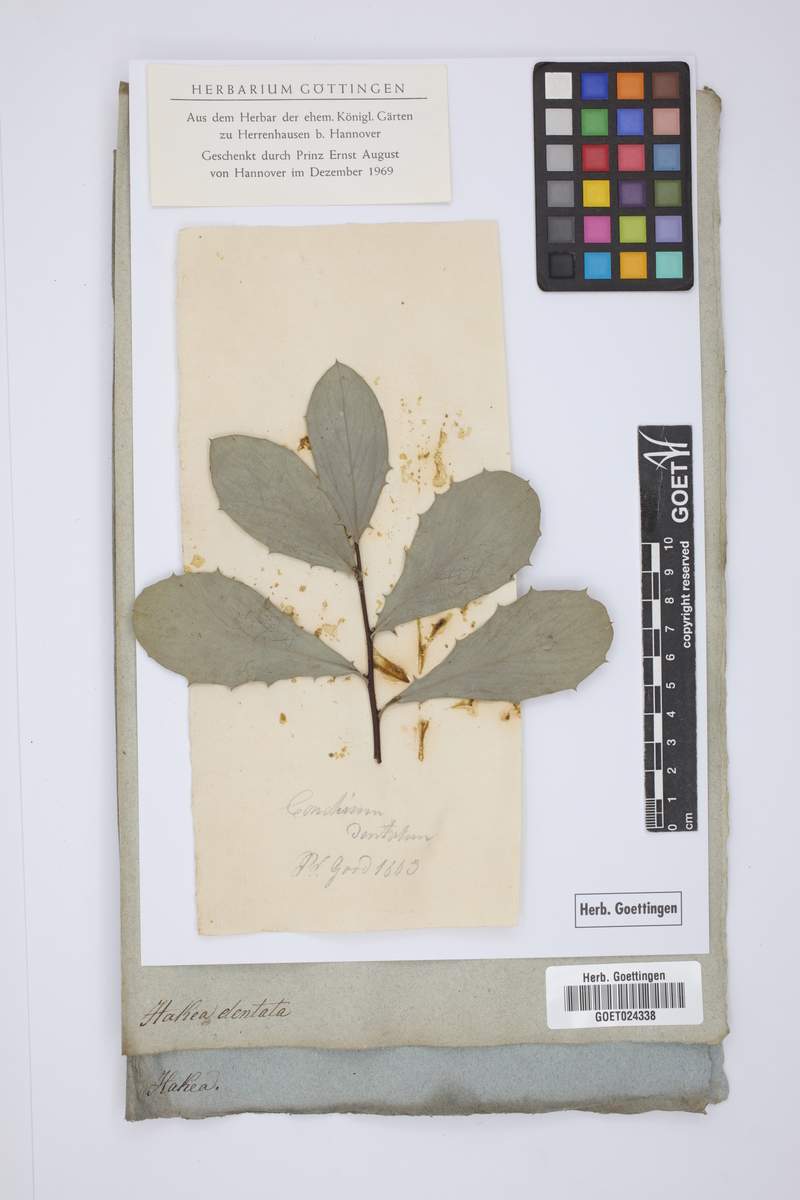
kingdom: Plantae
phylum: Tracheophyta
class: Magnoliopsida
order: Proteales
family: Proteaceae
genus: Hakea
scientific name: Hakea
